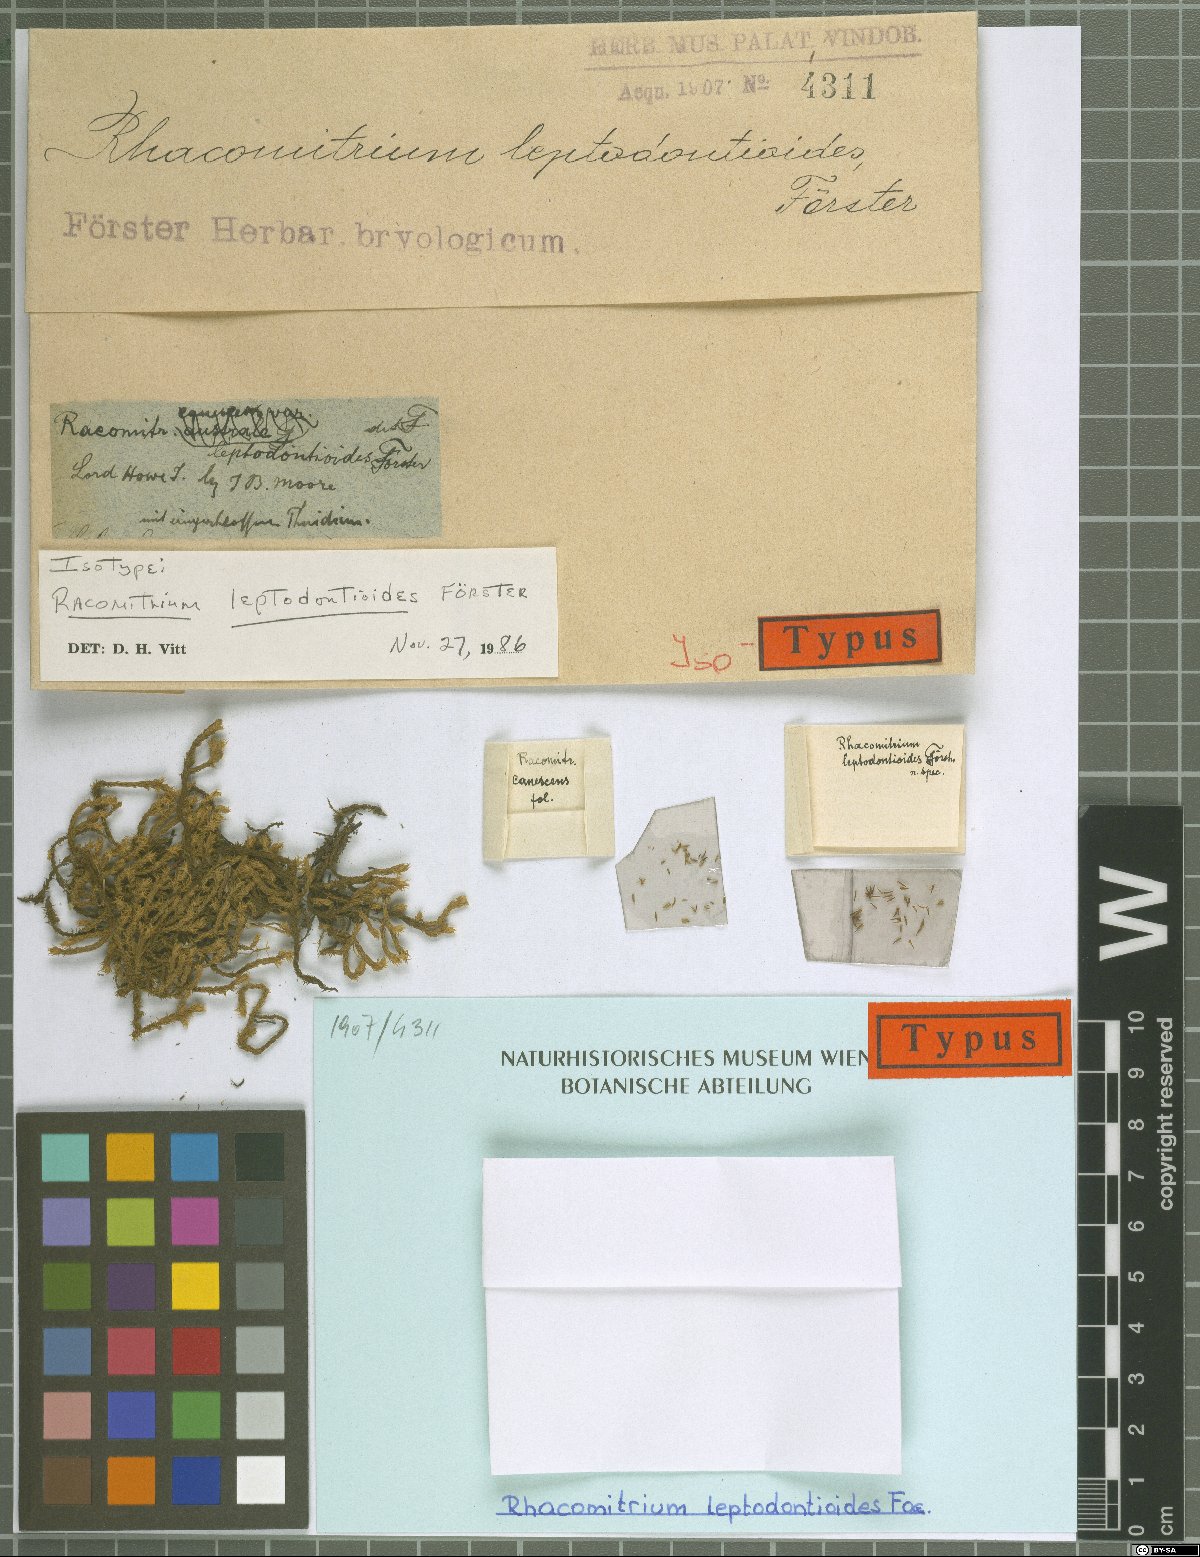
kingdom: Plantae
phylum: Bryophyta
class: Bryopsida
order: Grimmiales
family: Grimmiaceae
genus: Racomitrium
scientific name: Racomitrium lanuginosum
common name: Hoary rock moss
